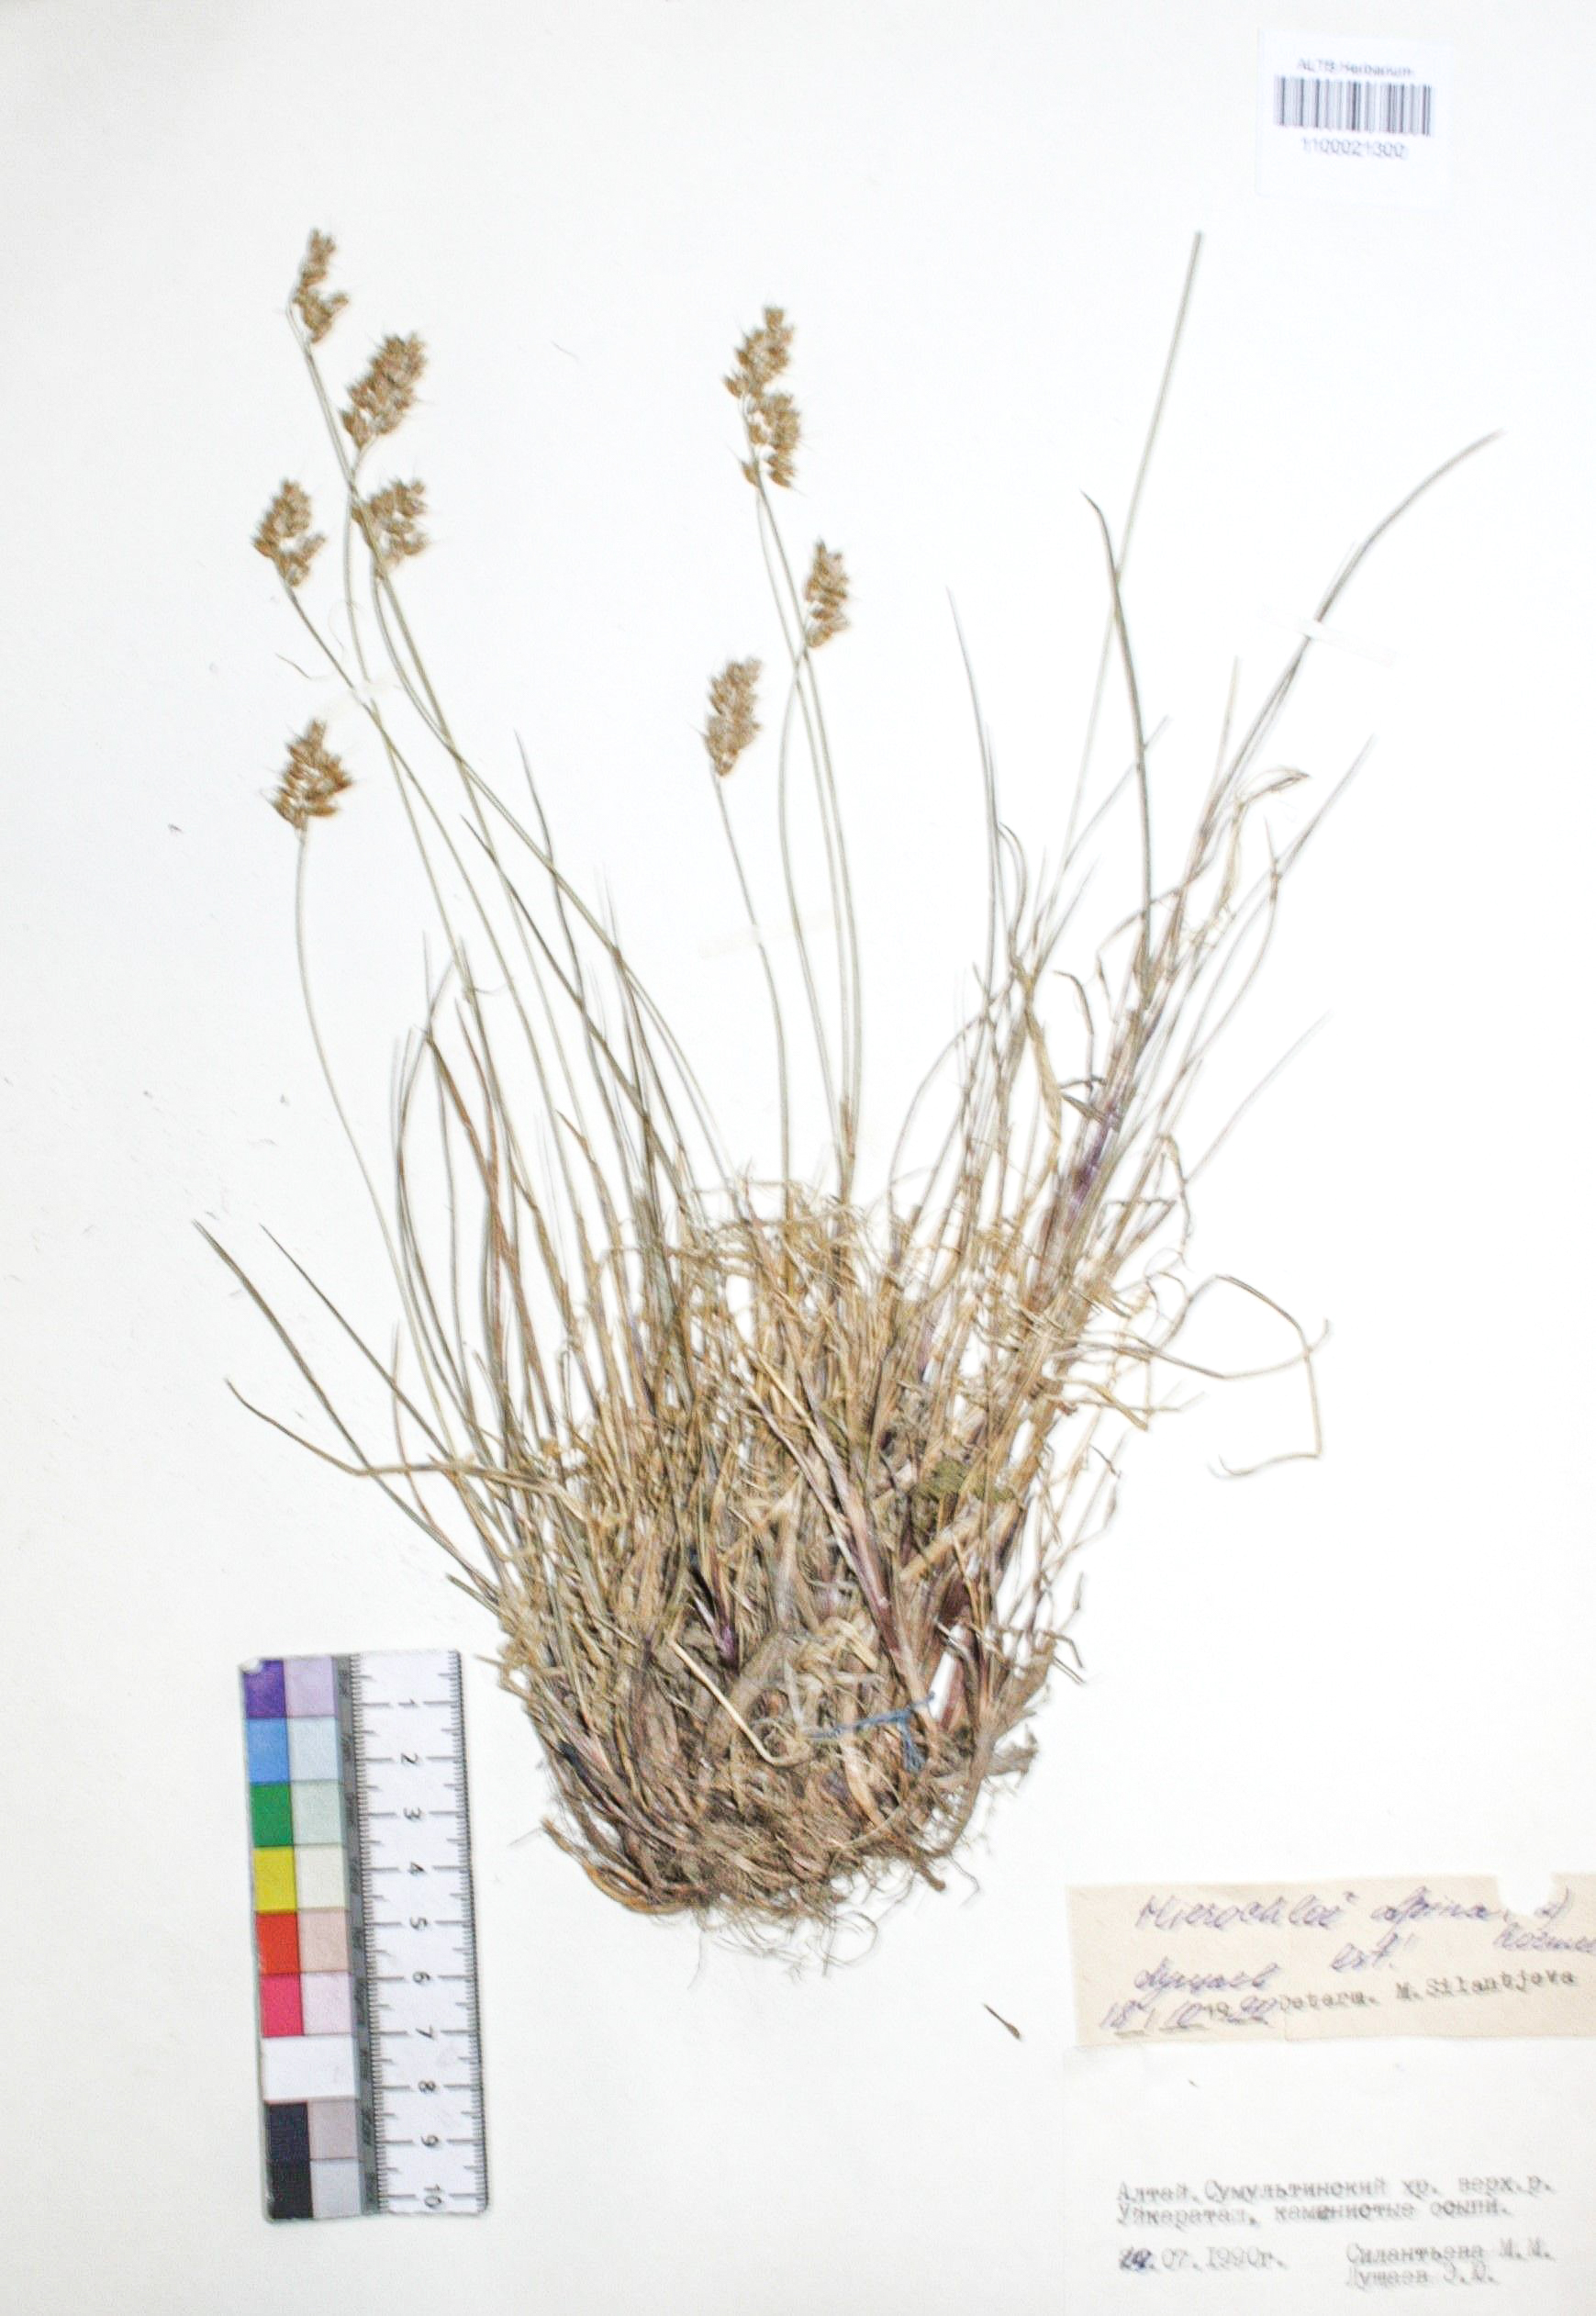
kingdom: Plantae
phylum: Tracheophyta
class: Liliopsida
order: Poales
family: Poaceae
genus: Anthoxanthum
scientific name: Anthoxanthum monticola
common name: Alpine sweetgrass
